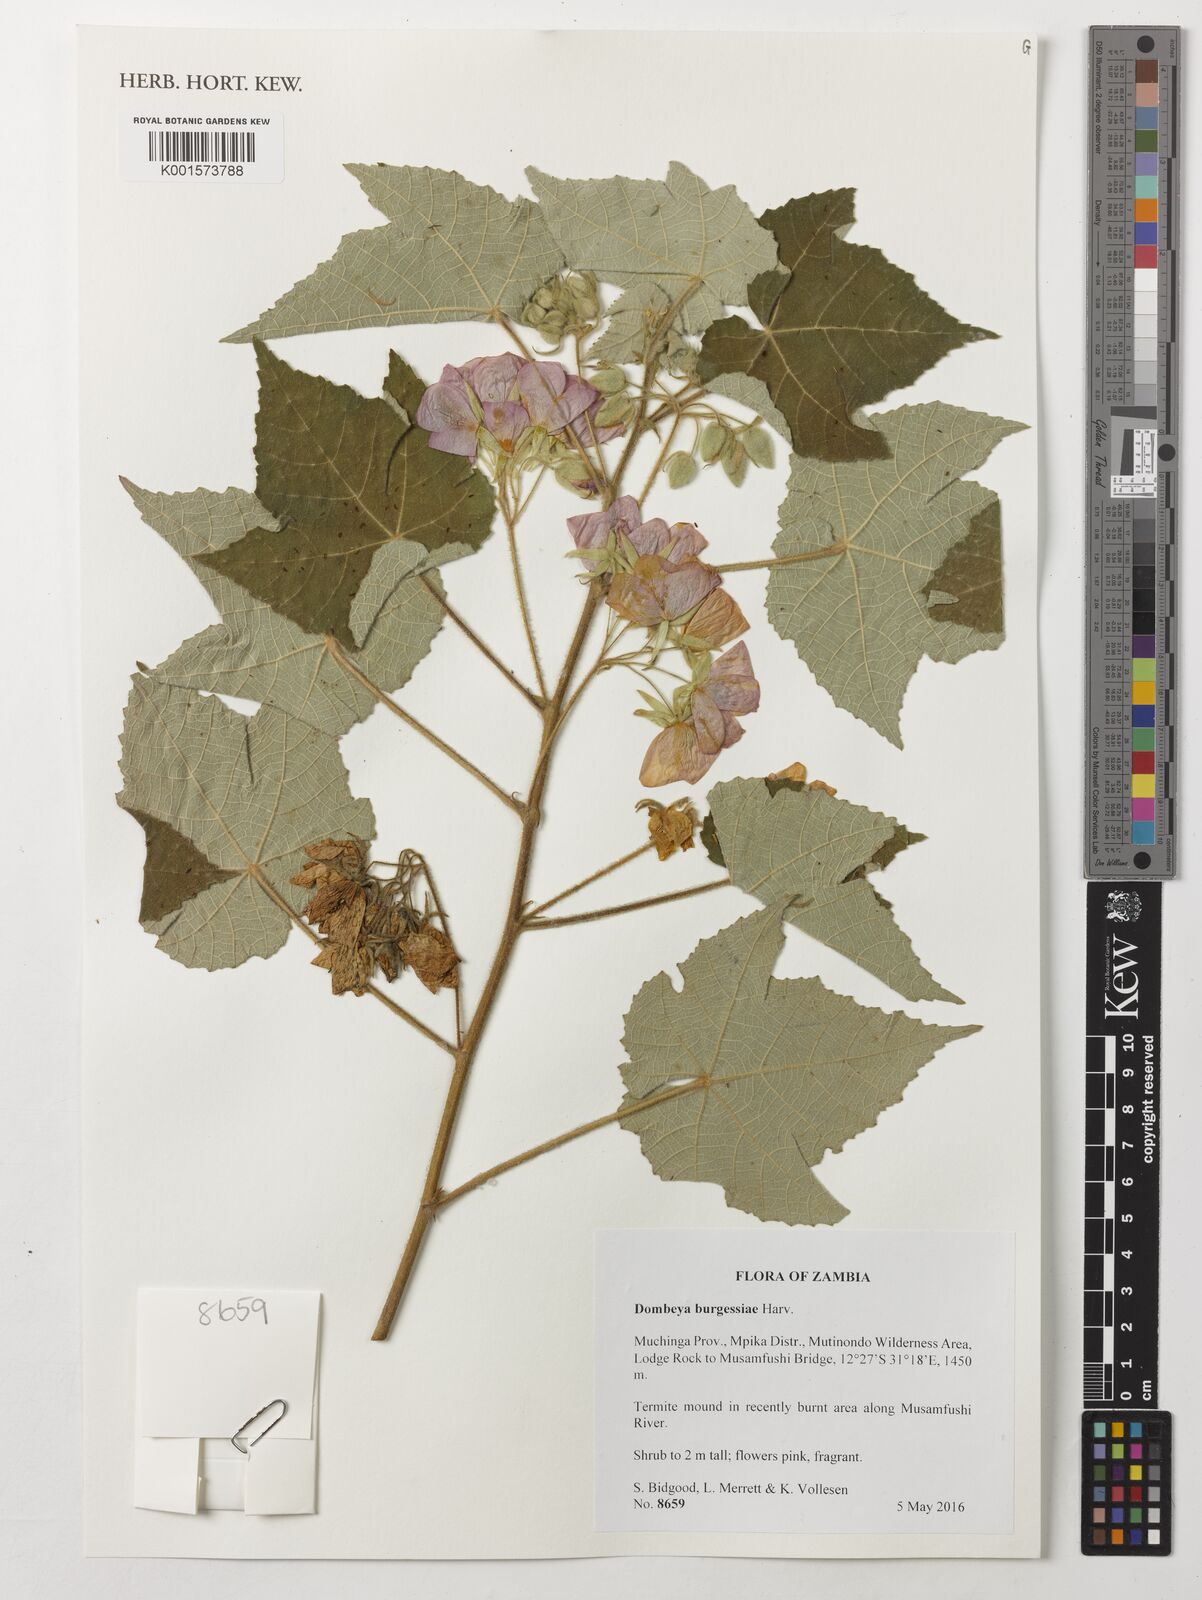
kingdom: Plantae
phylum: Tracheophyta
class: Magnoliopsida
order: Malvales
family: Malvaceae
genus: Dombeya
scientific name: Dombeya burgessiae
